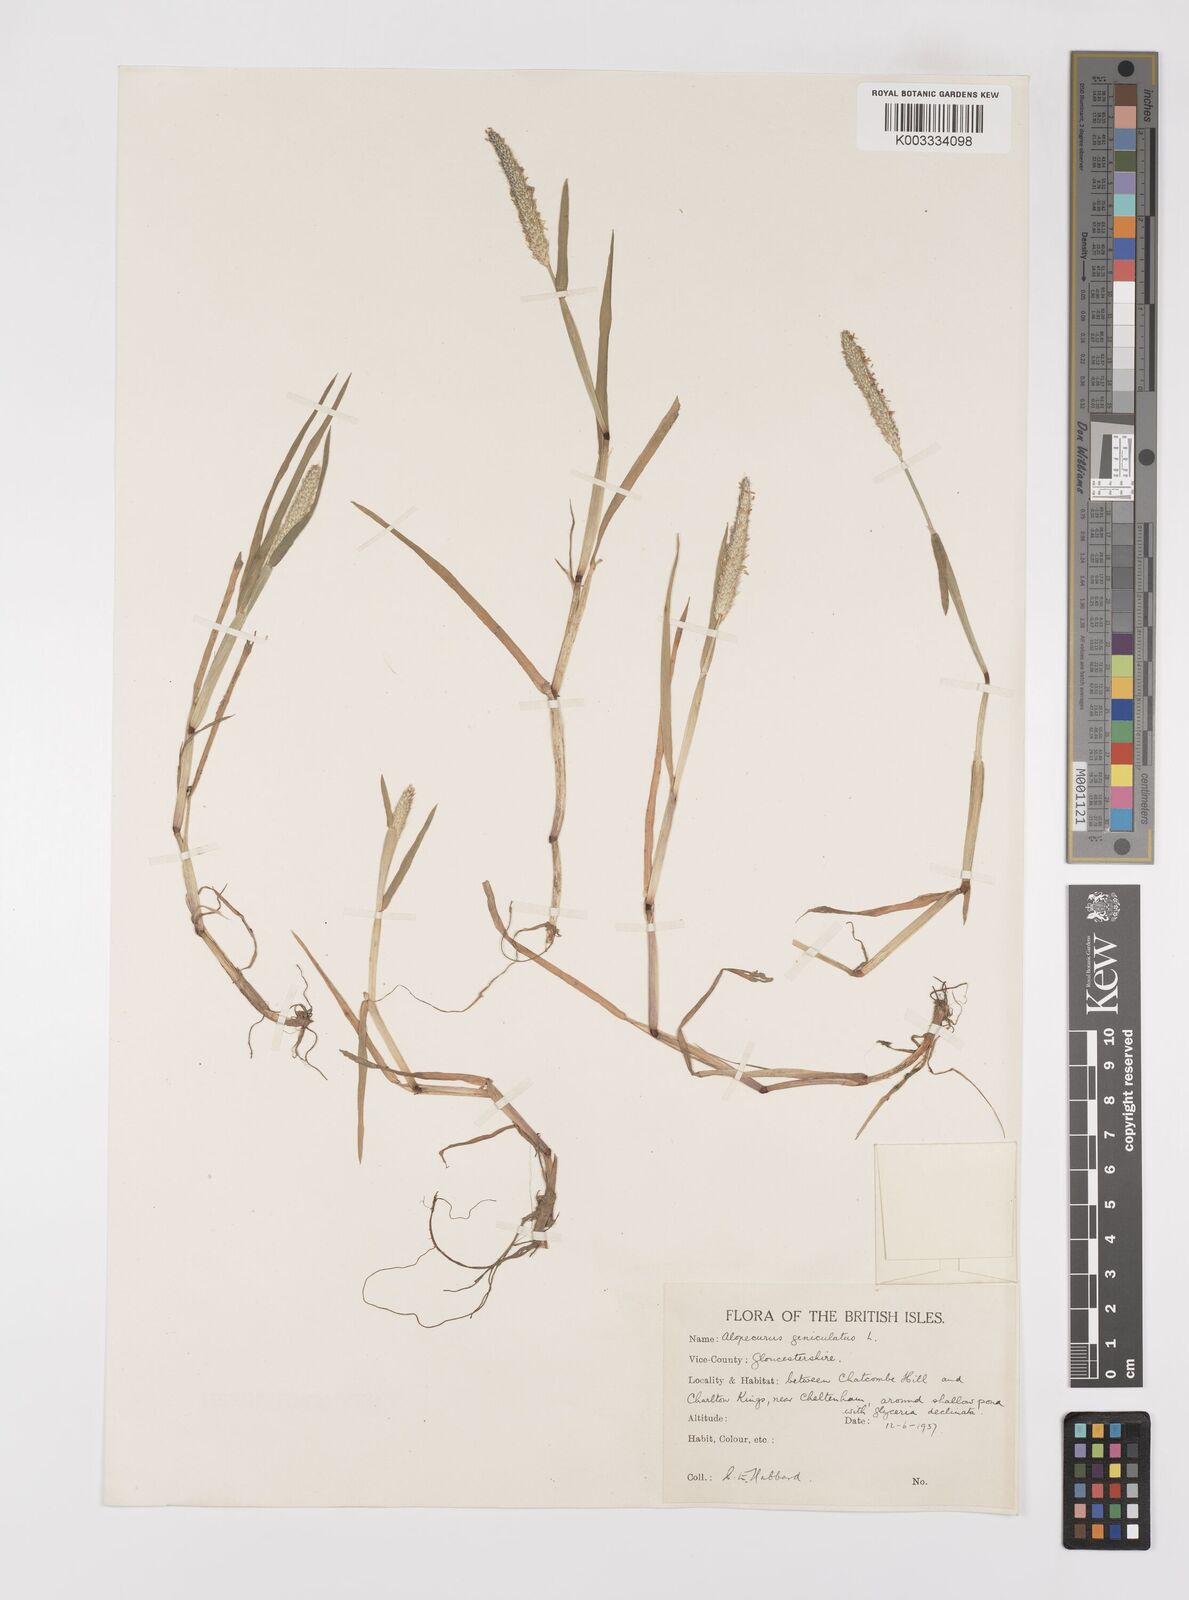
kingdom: Plantae
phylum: Tracheophyta
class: Liliopsida
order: Poales
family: Poaceae
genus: Alopecurus
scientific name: Alopecurus geniculatus
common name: Water foxtail
